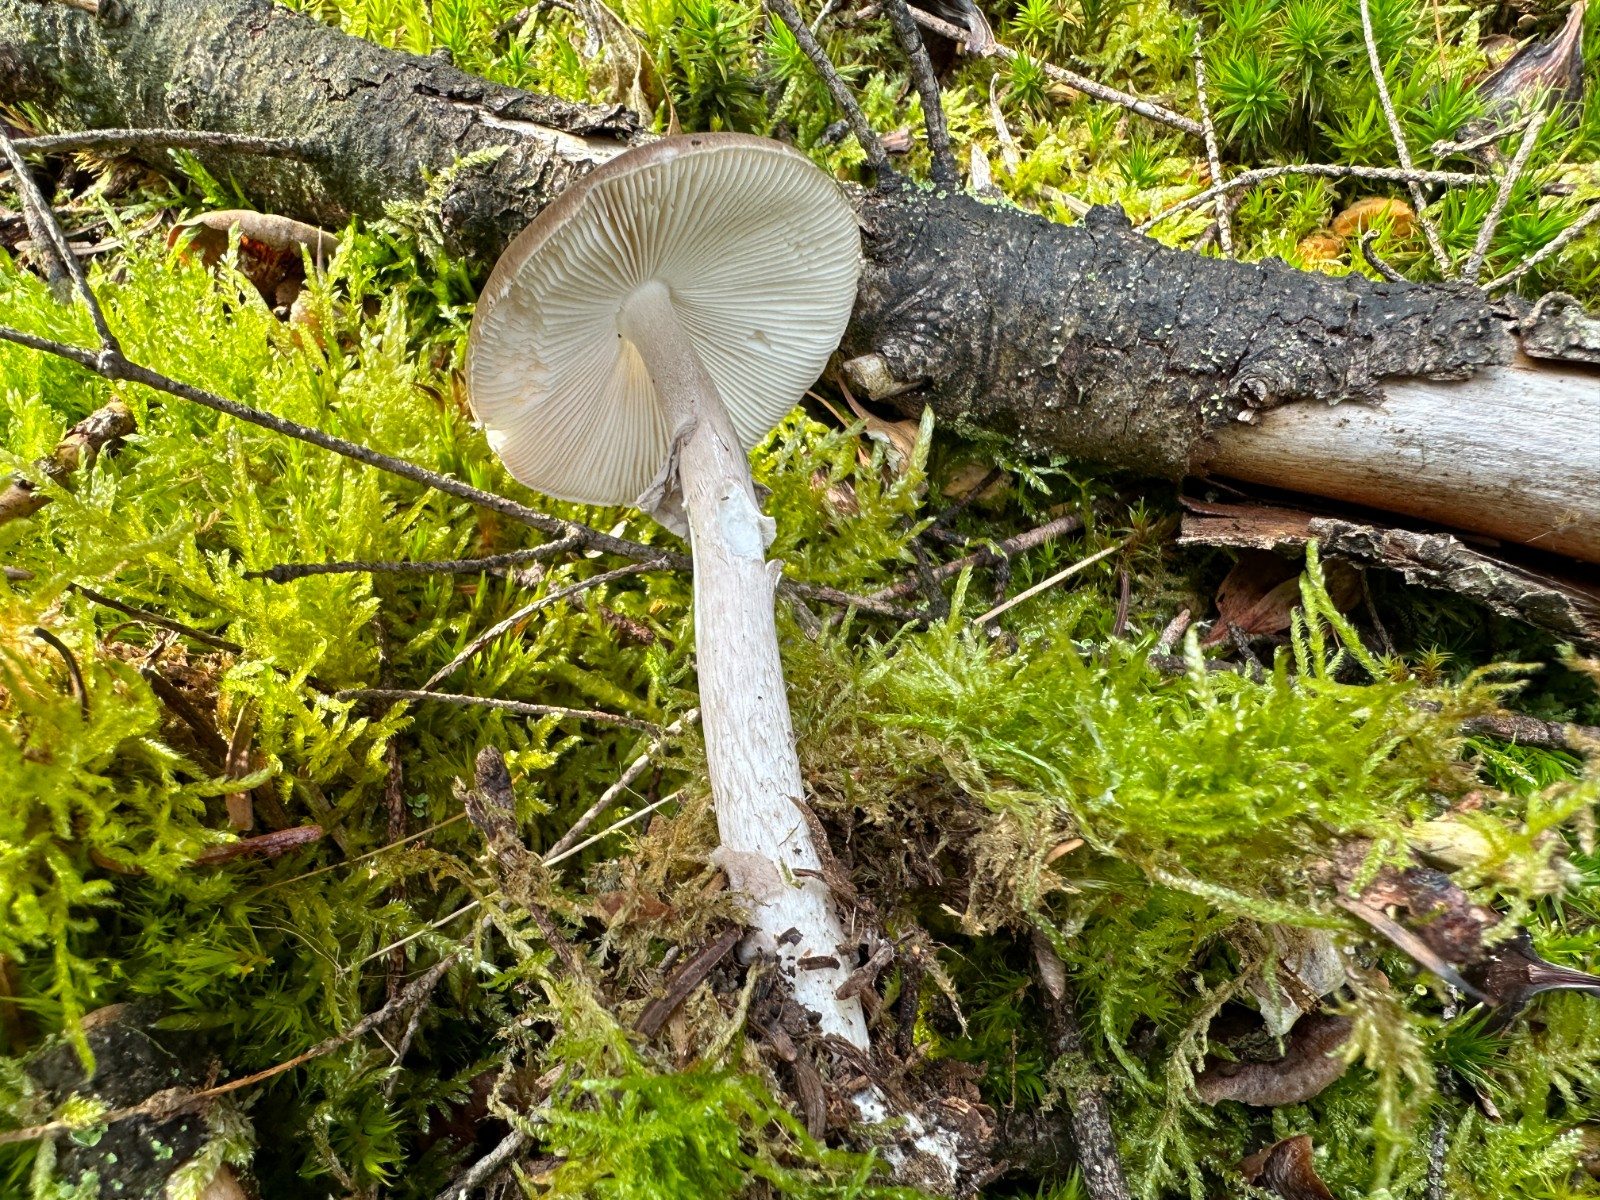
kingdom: Fungi
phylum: Basidiomycota
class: Agaricomycetes
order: Agaricales
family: Amanitaceae
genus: Amanita
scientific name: Amanita porphyria
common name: porfyr-fluesvamp
